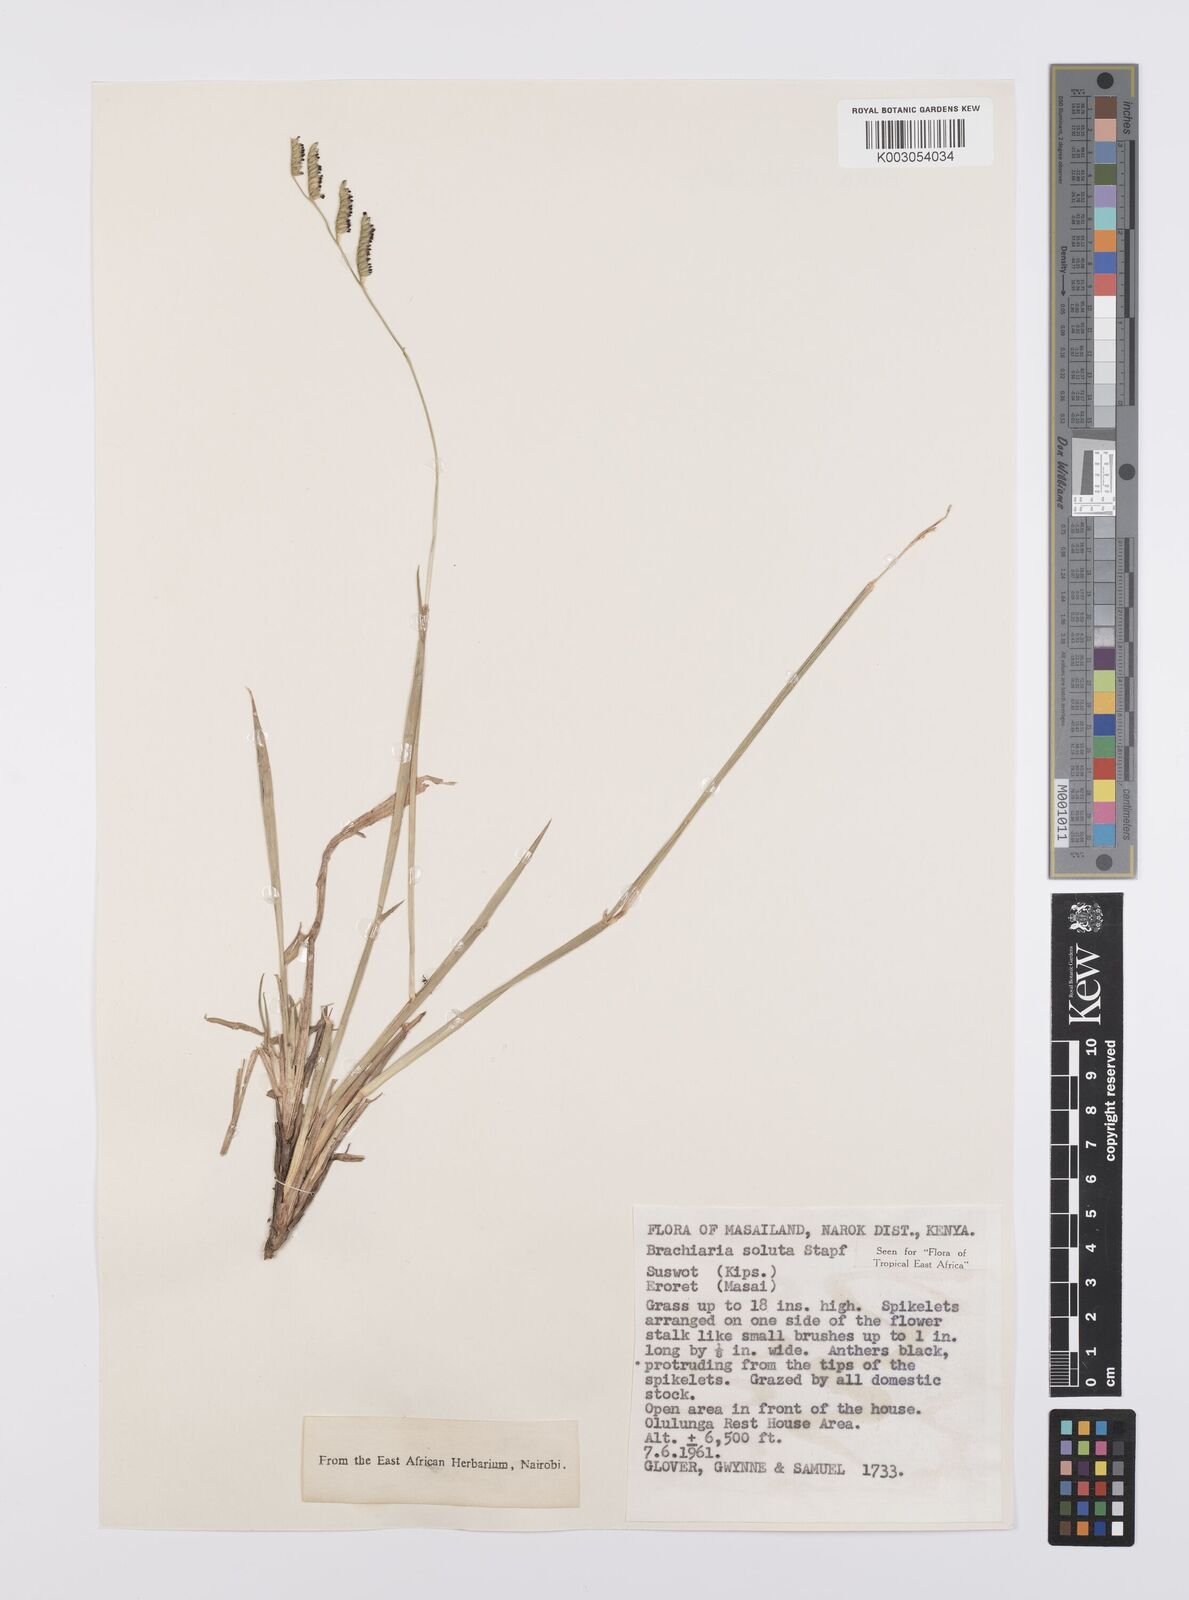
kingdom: Plantae
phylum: Tracheophyta
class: Liliopsida
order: Poales
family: Poaceae
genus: Urochloa
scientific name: Urochloa jubata
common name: Buffalograss
